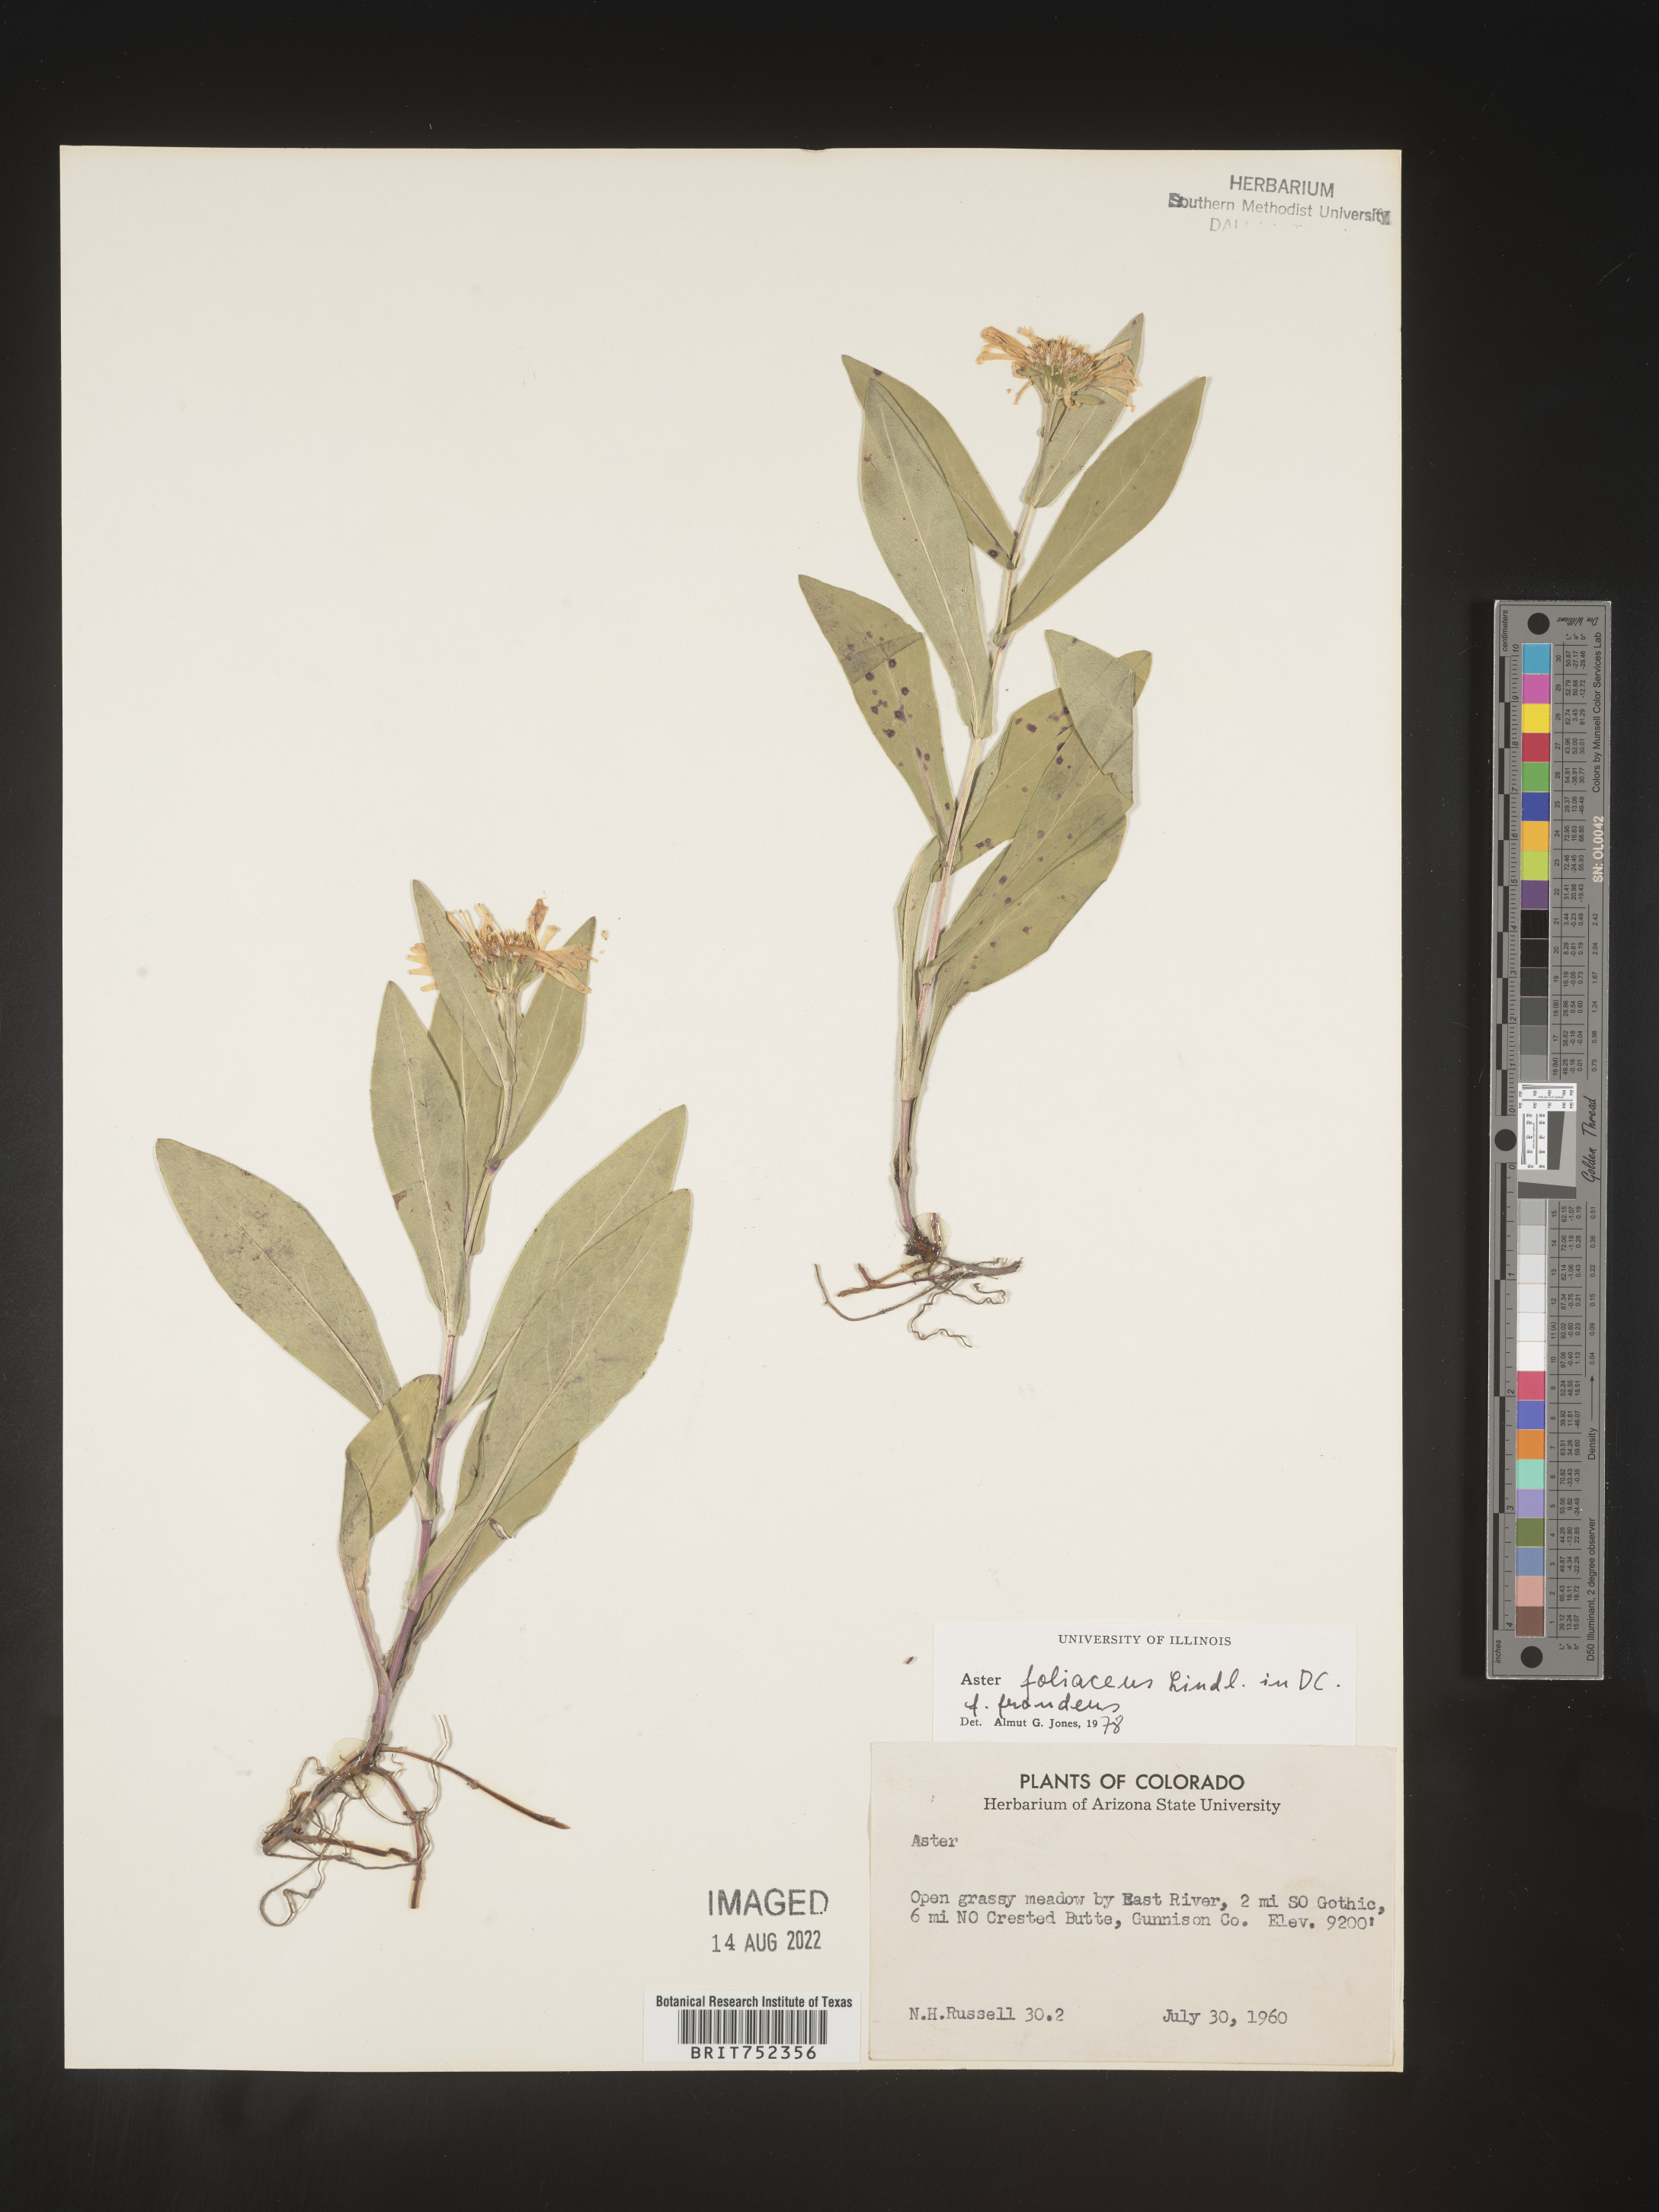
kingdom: Plantae
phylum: Tracheophyta
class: Magnoliopsida
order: Asterales
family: Asteraceae
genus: Symphyotrichum
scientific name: Symphyotrichum foliaceum
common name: Leafy aster
